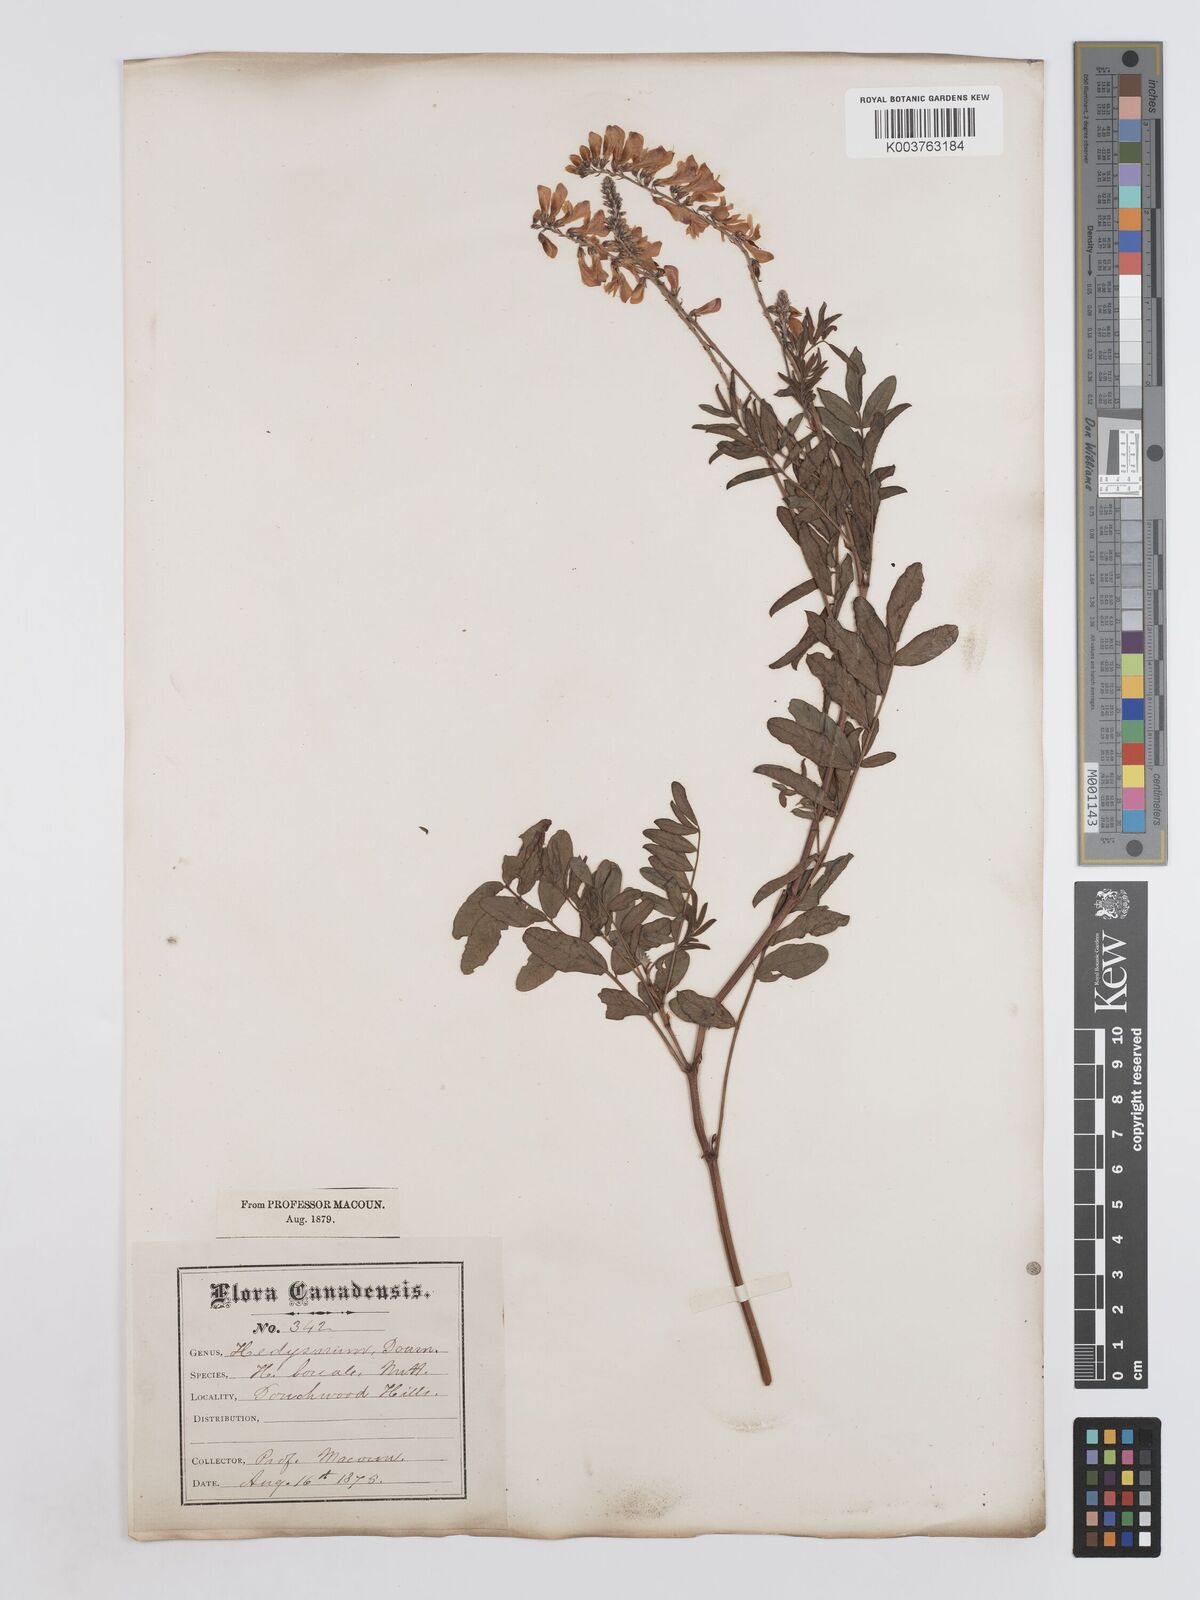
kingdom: Plantae
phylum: Tracheophyta
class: Magnoliopsida
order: Fabales
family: Fabaceae
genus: Hedysarum
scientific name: Hedysarum boreale
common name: Northern sweet-vetch
